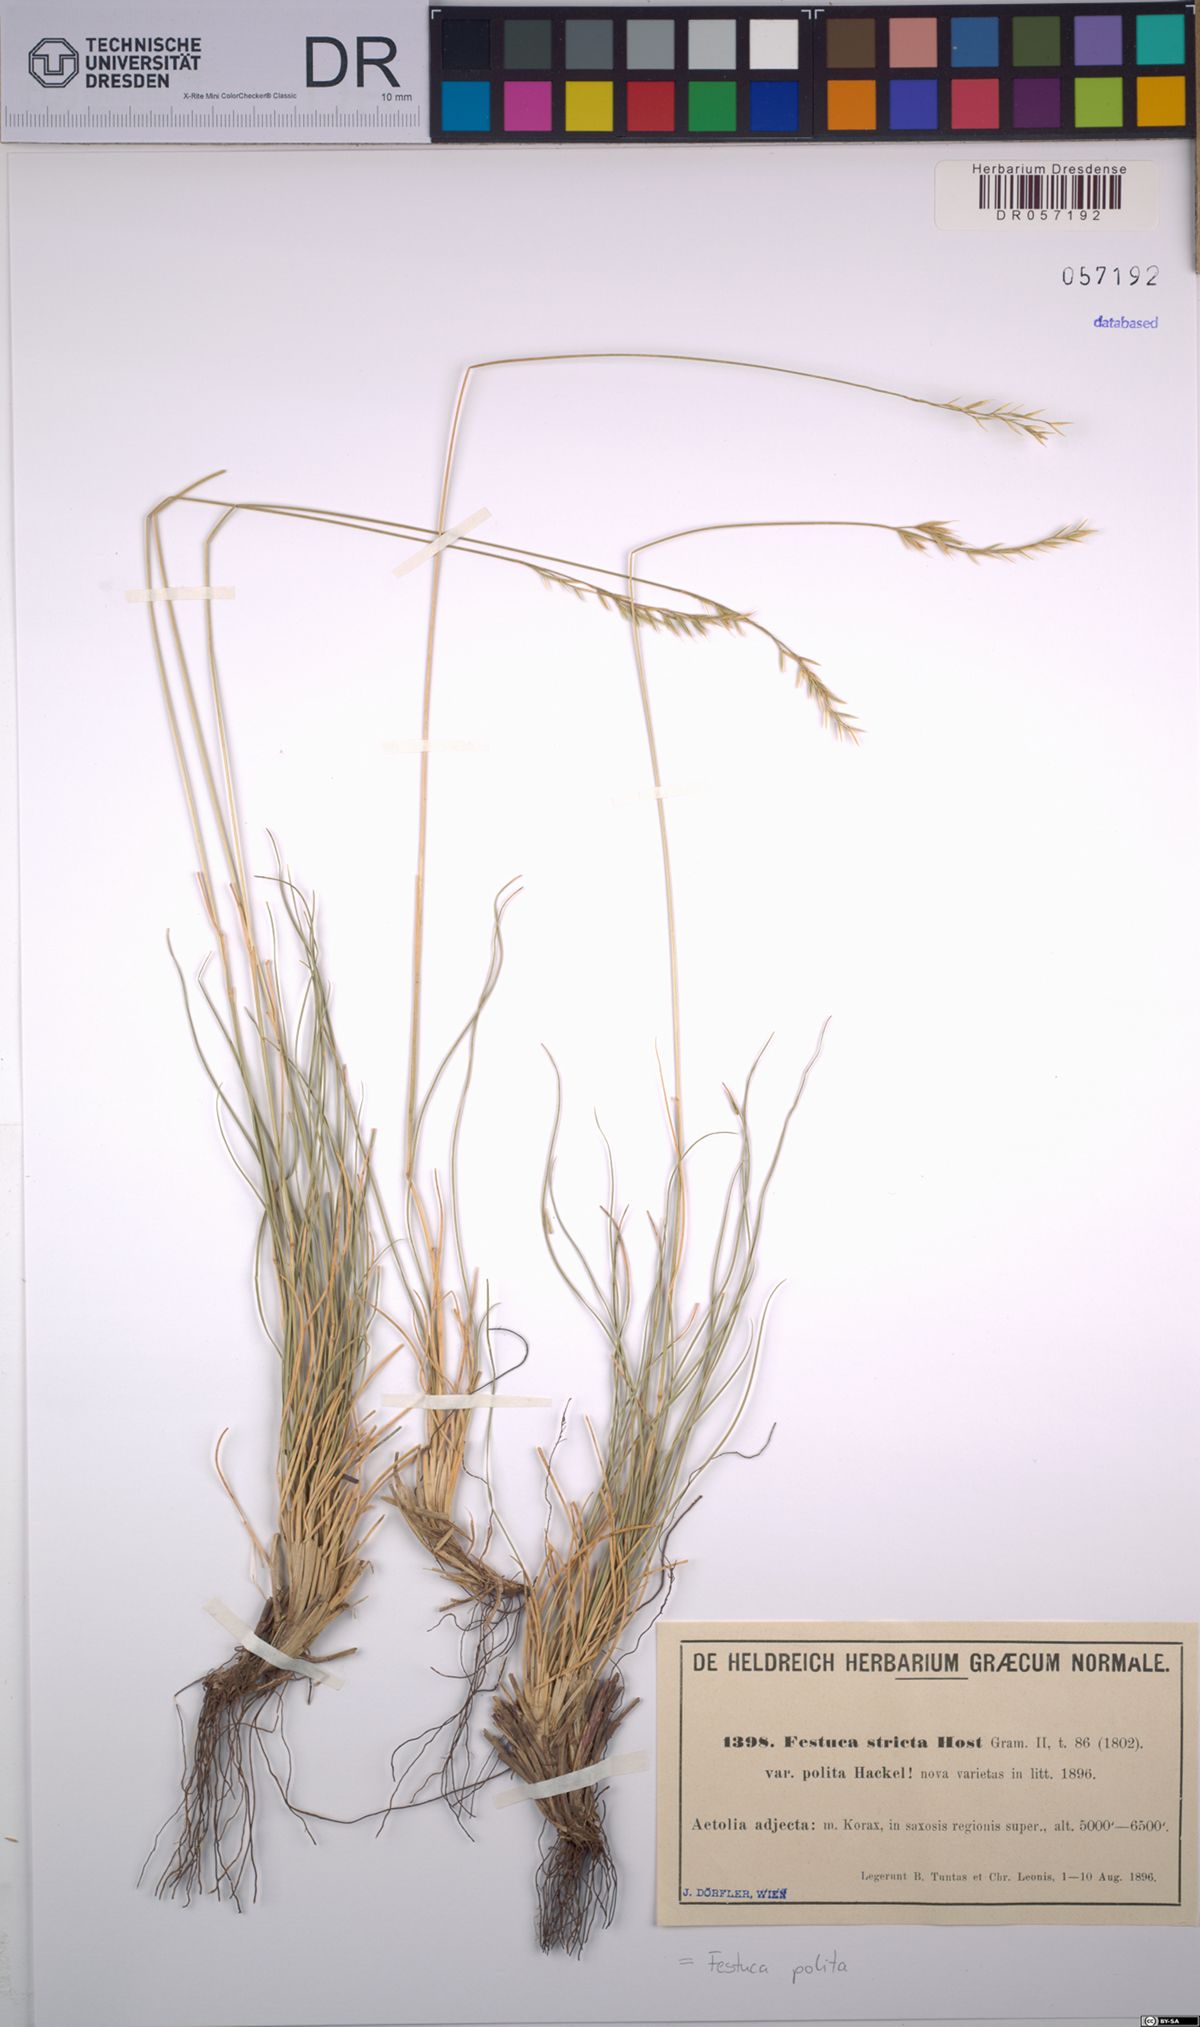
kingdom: Plantae
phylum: Tracheophyta
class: Liliopsida
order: Poales
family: Poaceae
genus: Festuca
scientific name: Festuca polita
